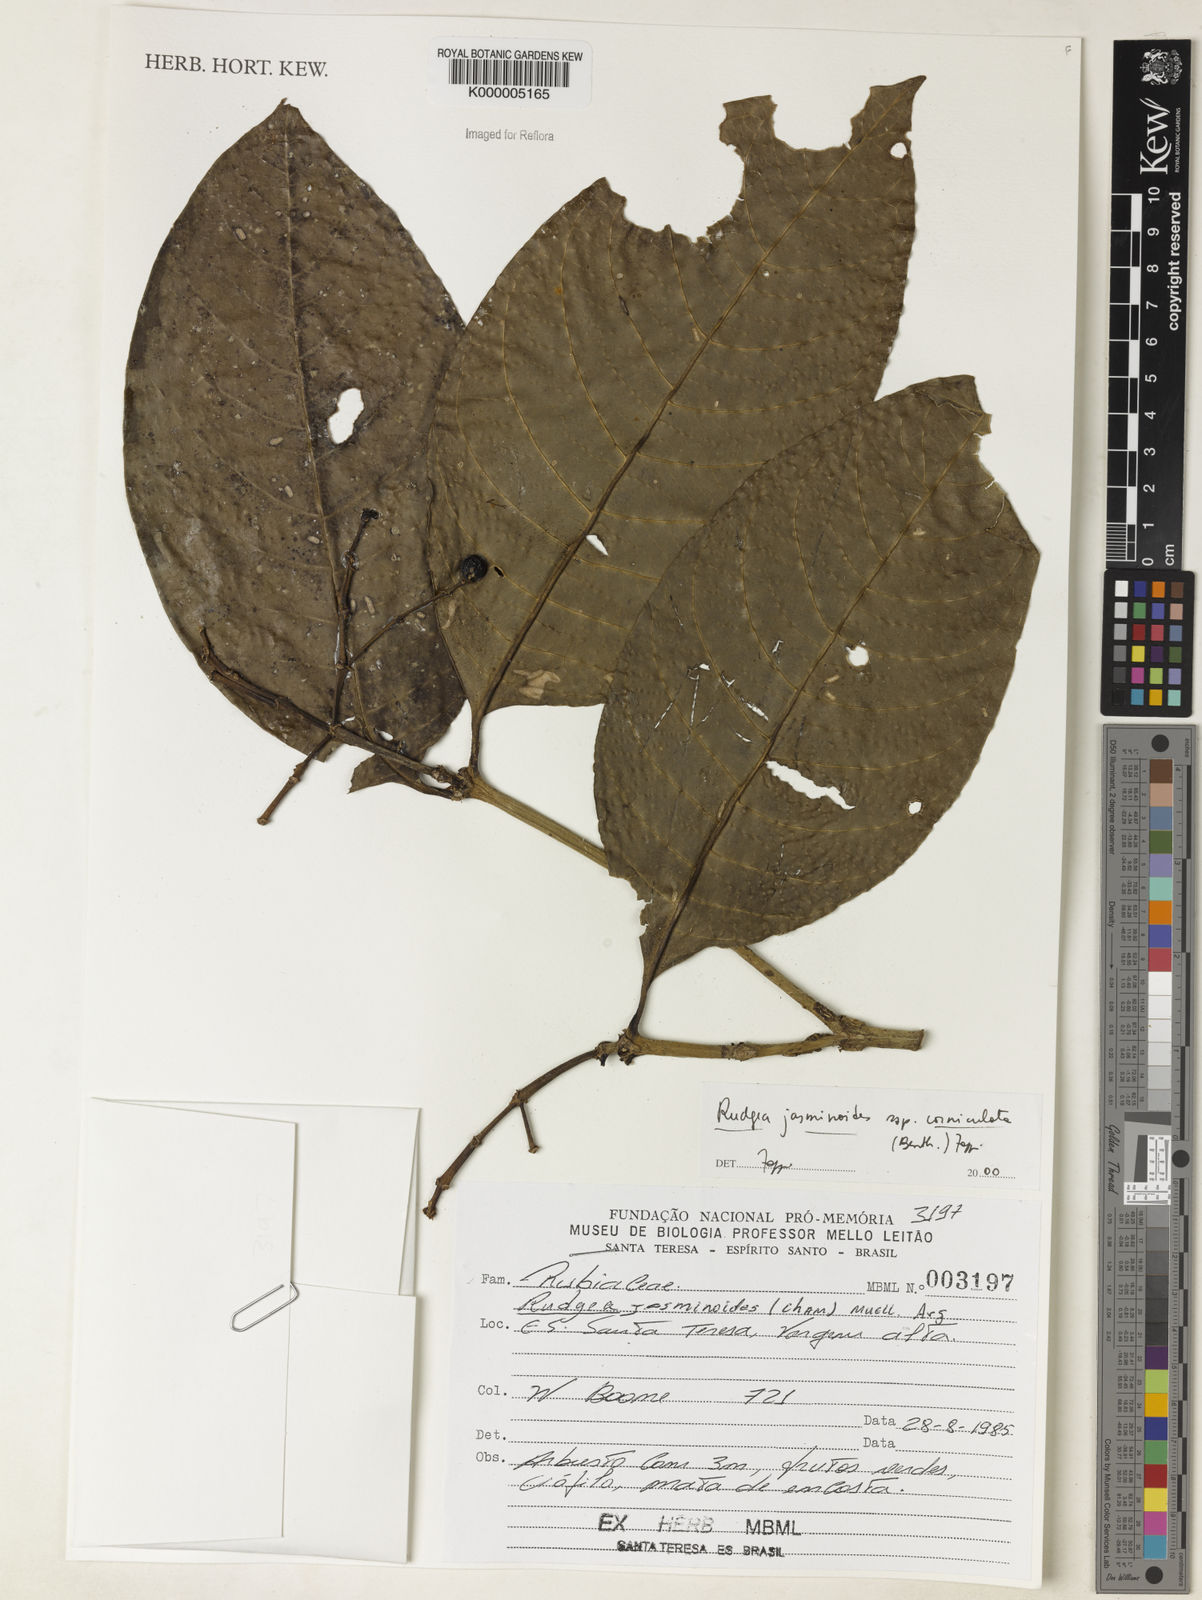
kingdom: Plantae
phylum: Tracheophyta
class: Magnoliopsida
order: Gentianales
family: Rubiaceae
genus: Rudgea
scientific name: Rudgea jasminoides
